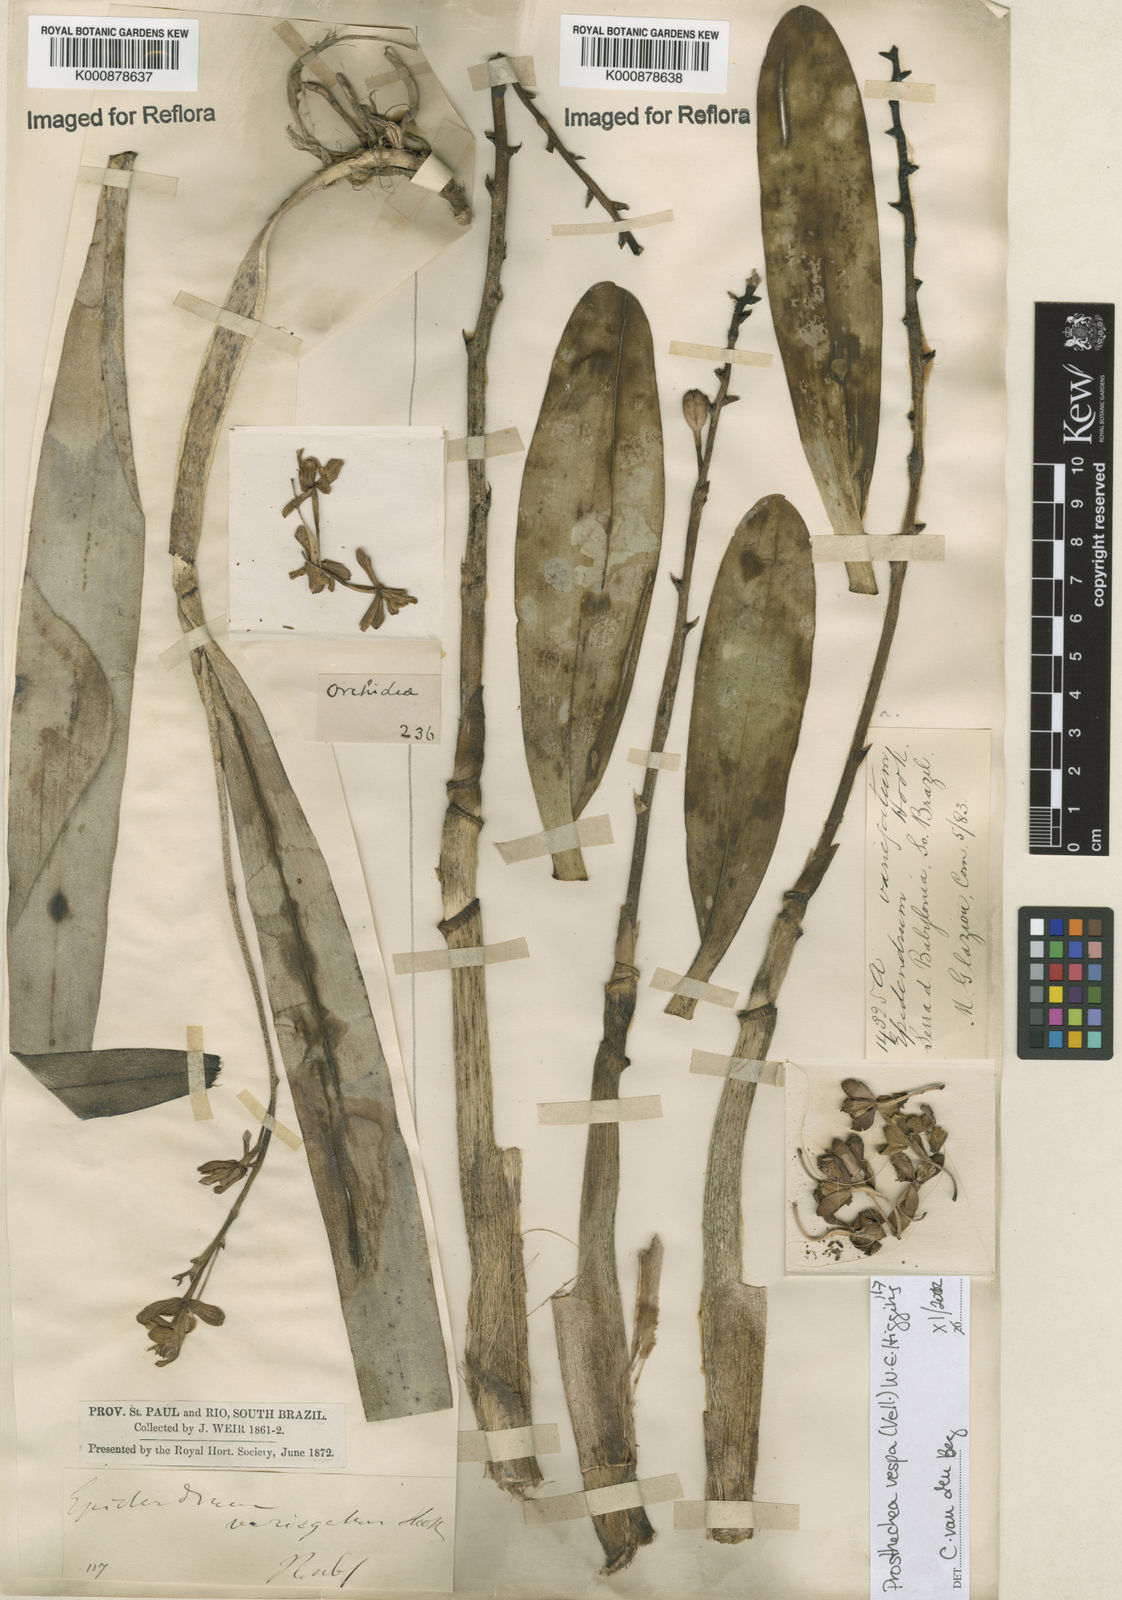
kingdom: Plantae
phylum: Tracheophyta
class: Liliopsida
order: Asparagales
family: Orchidaceae
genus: Prosthechea
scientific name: Prosthechea vespa
